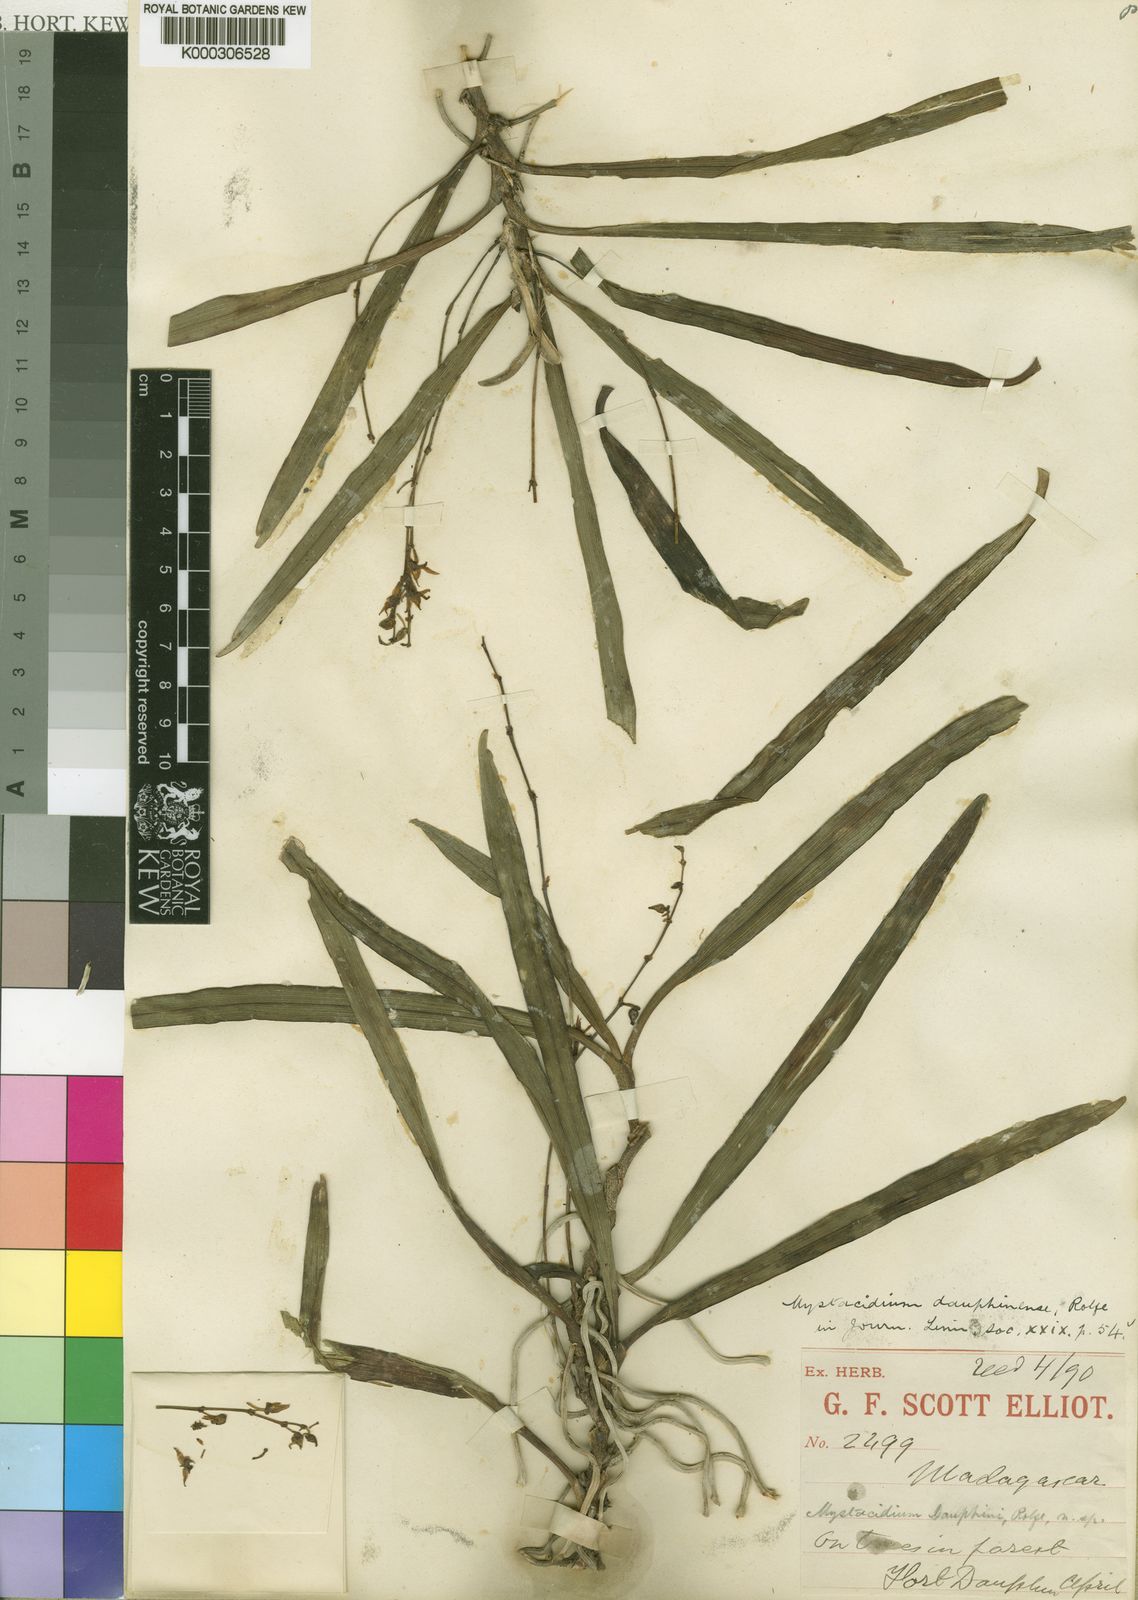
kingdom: Plantae
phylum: Tracheophyta
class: Liliopsida
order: Asparagales
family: Orchidaceae
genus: Angraecum
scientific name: Angraecum dauphinense
